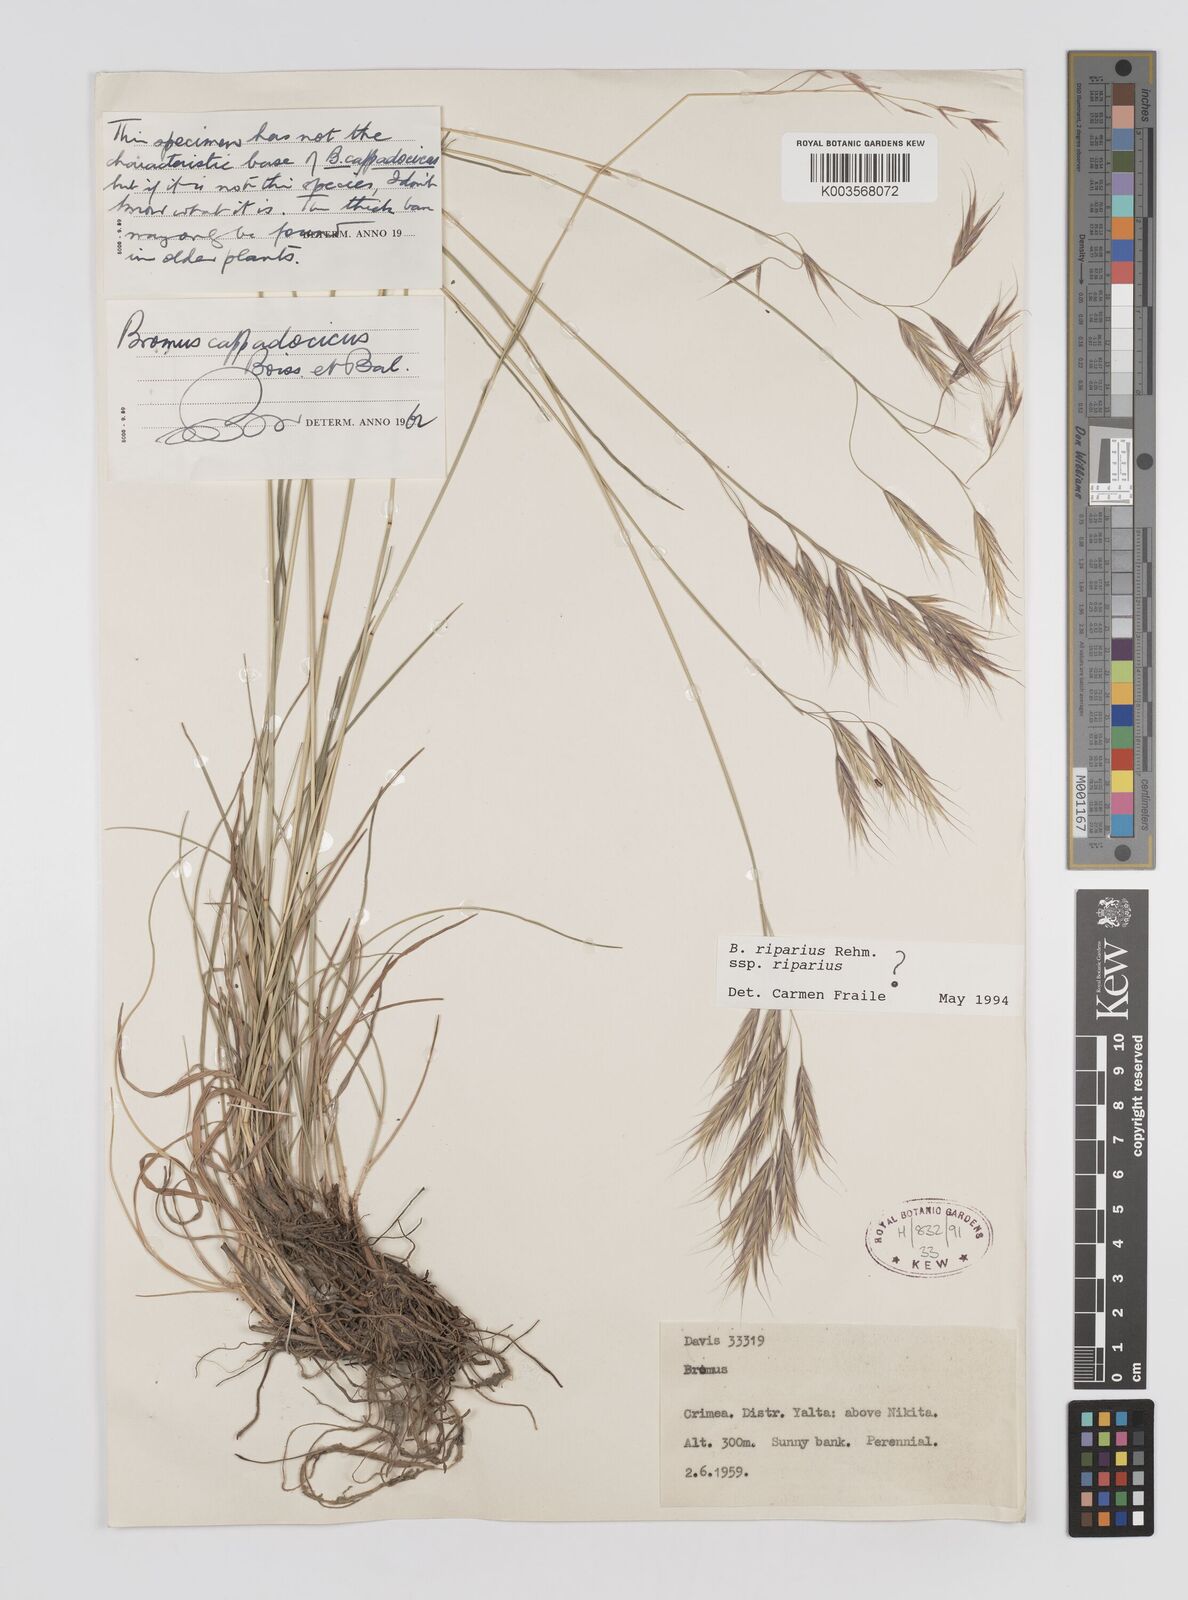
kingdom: Plantae
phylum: Tracheophyta
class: Liliopsida
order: Poales
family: Poaceae
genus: Bromus
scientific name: Bromus riparius
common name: Meadow brome
